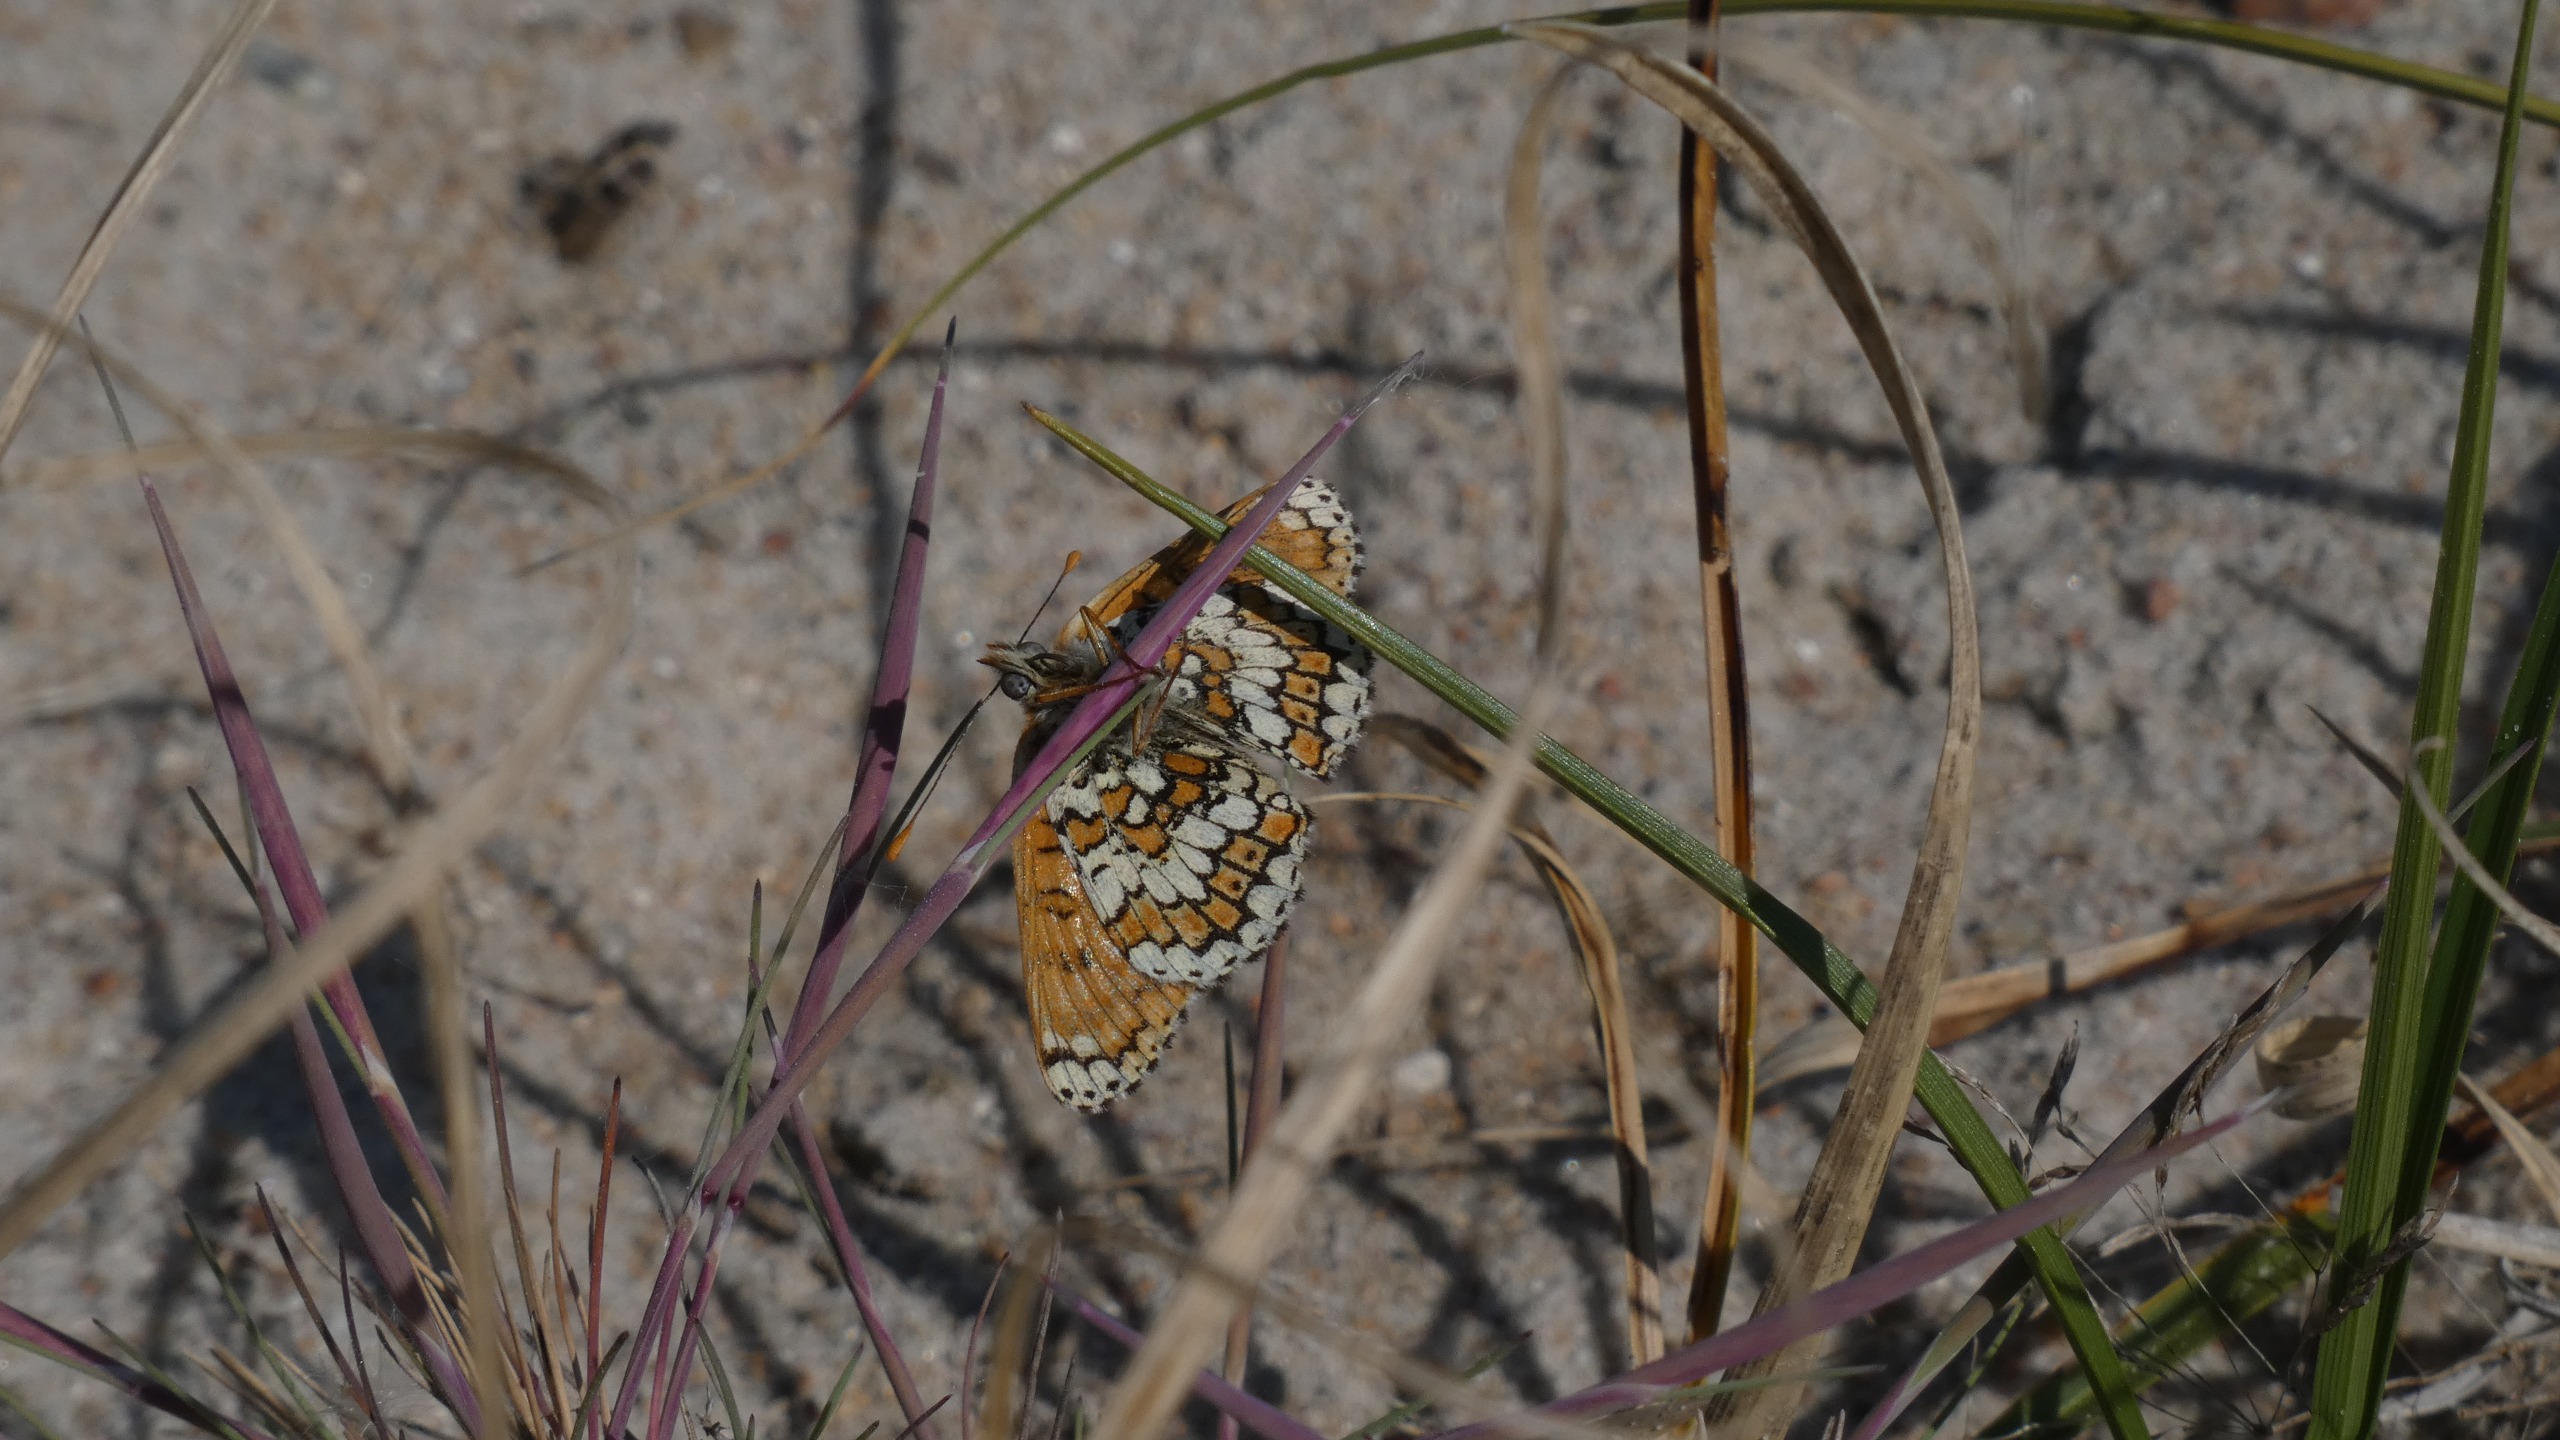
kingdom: Animalia
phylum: Arthropoda
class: Insecta
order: Lepidoptera
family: Nymphalidae
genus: Melitaea
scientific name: Melitaea cinxia
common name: Okkergul pletvinge
